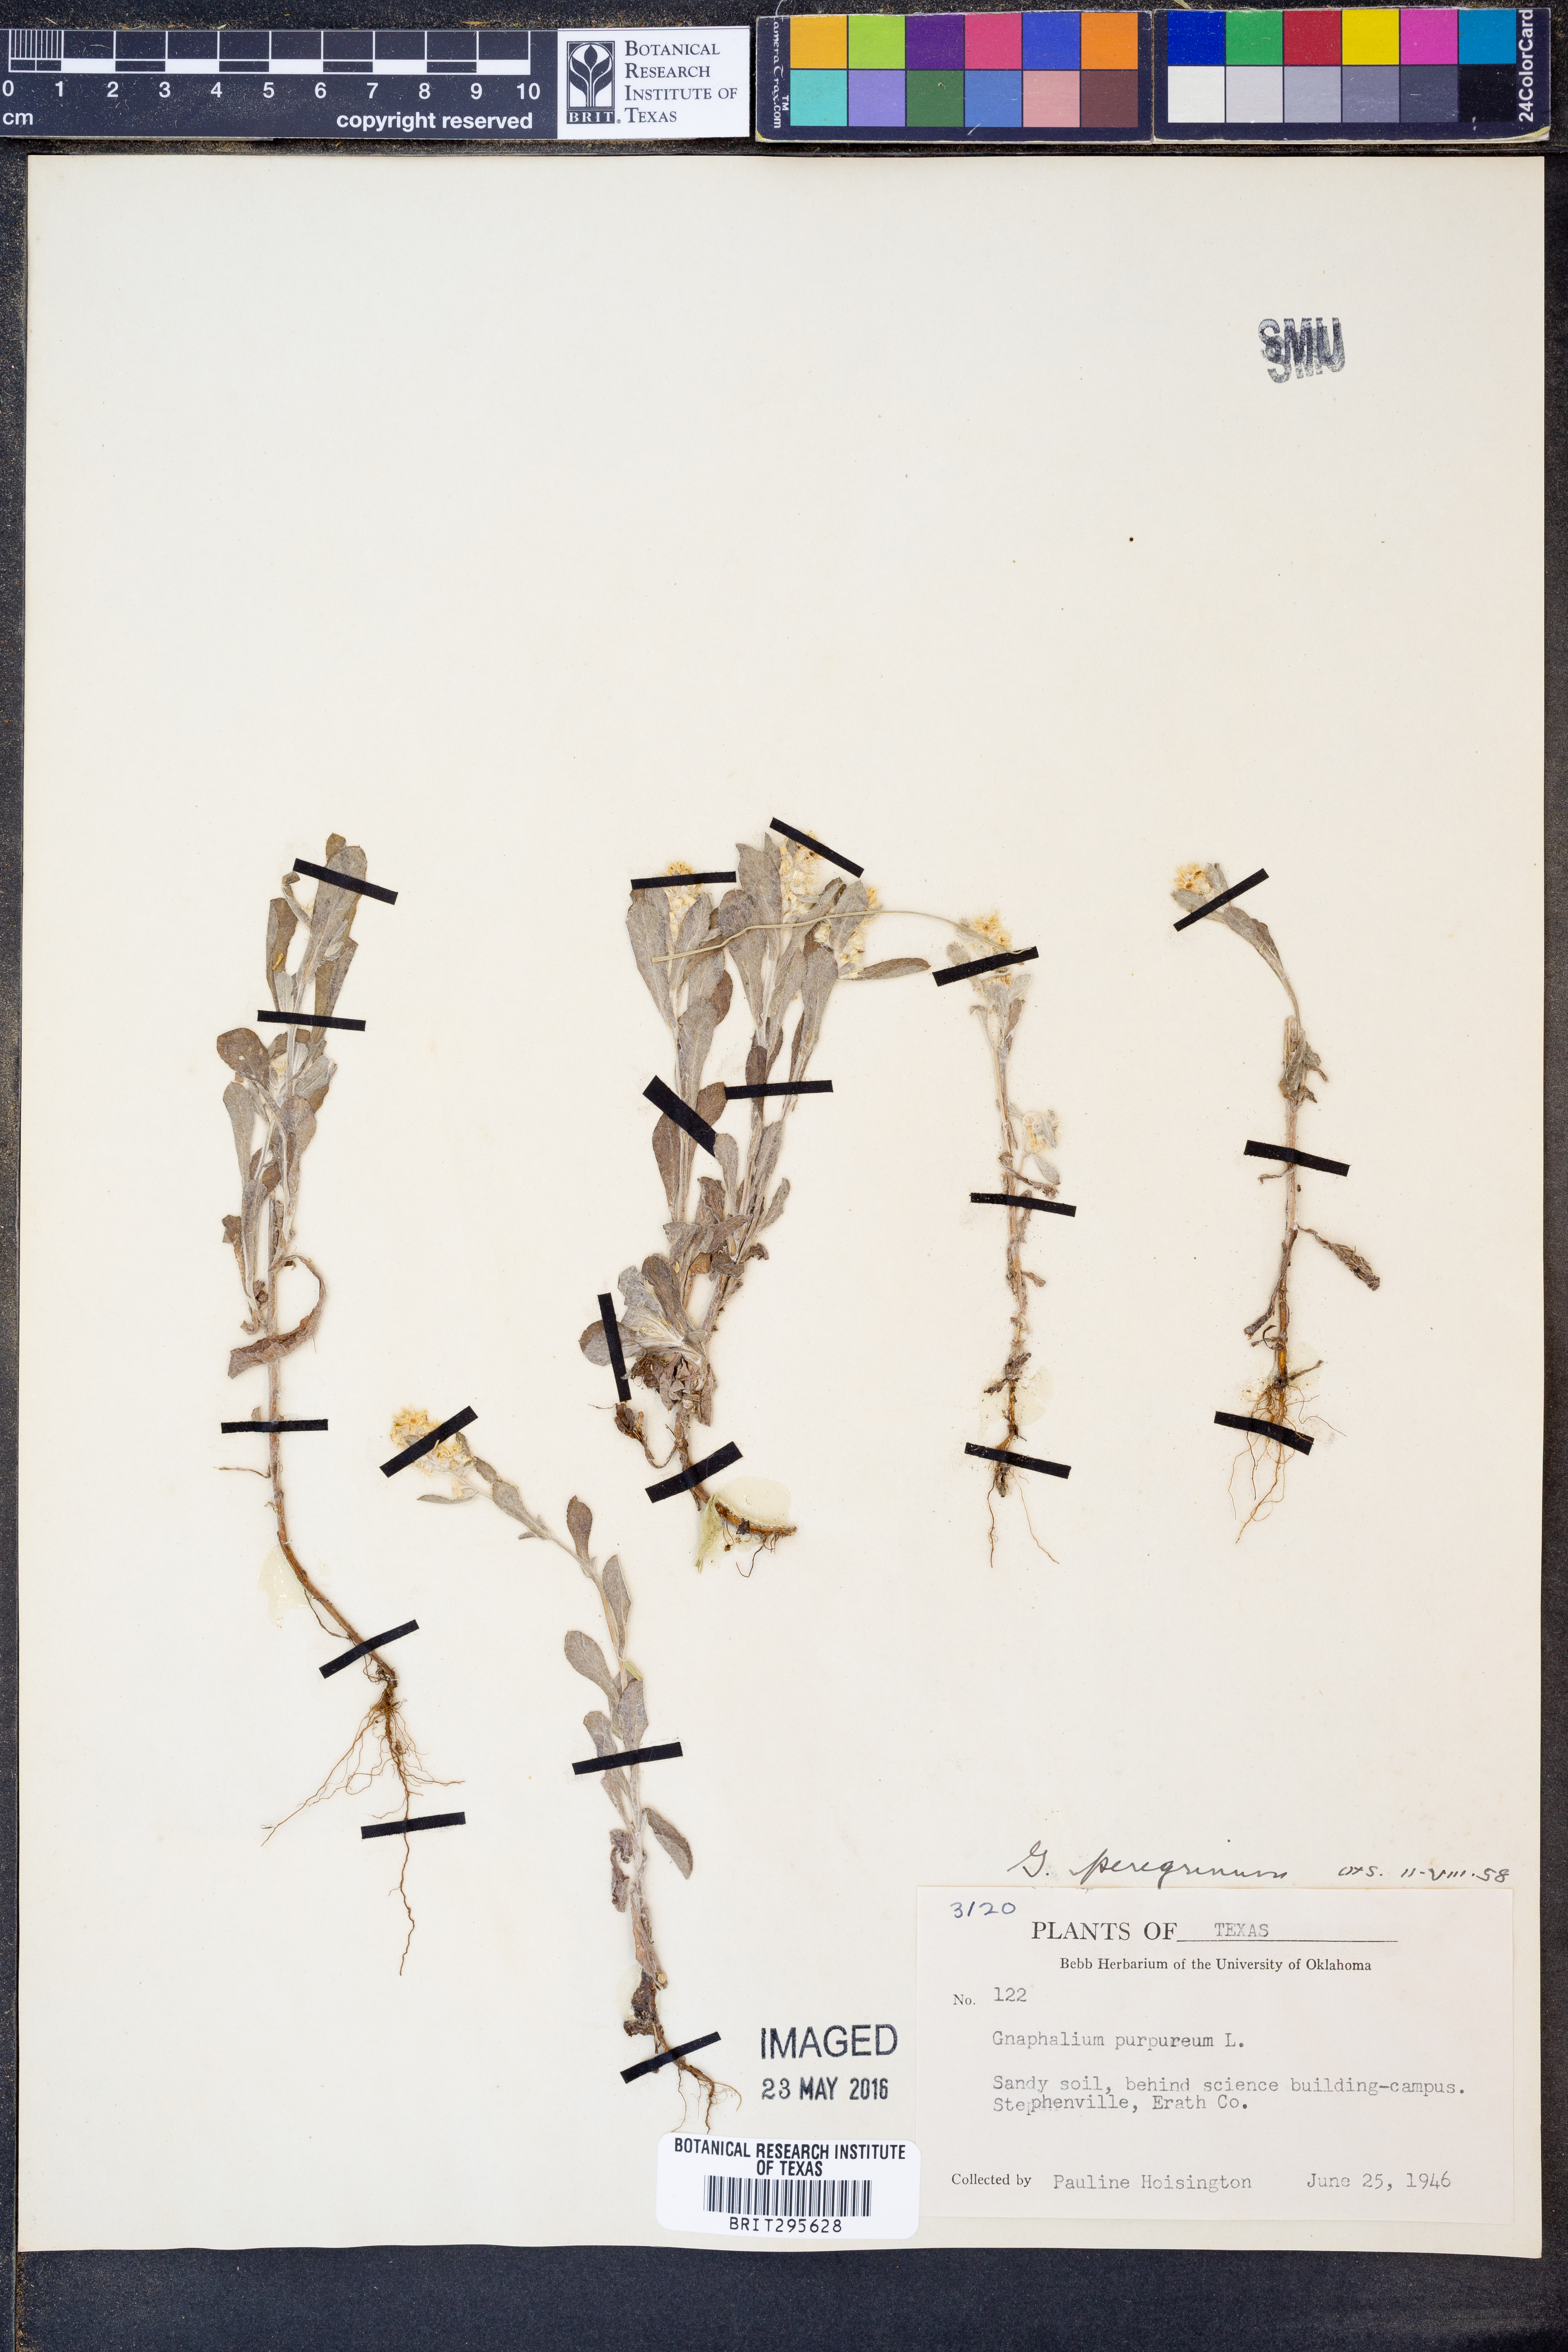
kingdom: Plantae
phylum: Tracheophyta
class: Magnoliopsida
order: Asterales
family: Asteraceae
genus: Gamochaeta
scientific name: Gamochaeta pensylvanica
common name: Pennsylvania everlasting
